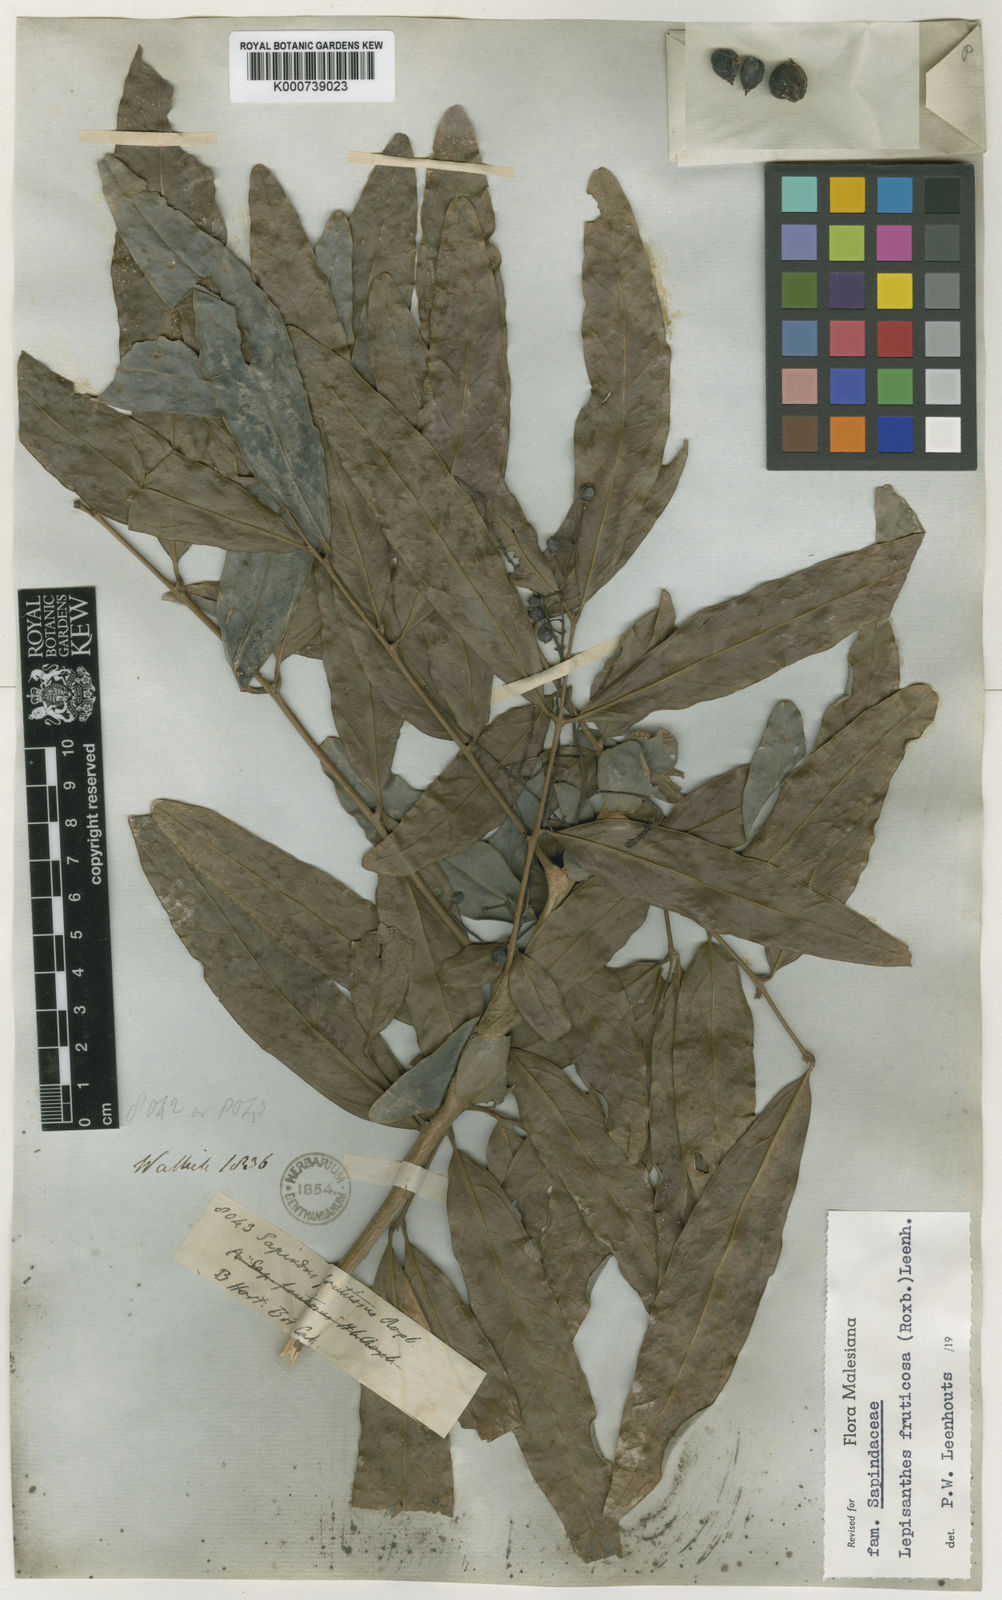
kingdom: Plantae
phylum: Tracheophyta
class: Magnoliopsida
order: Sapindales
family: Sapindaceae
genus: Lepisanthes
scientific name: Lepisanthes fruticosa
